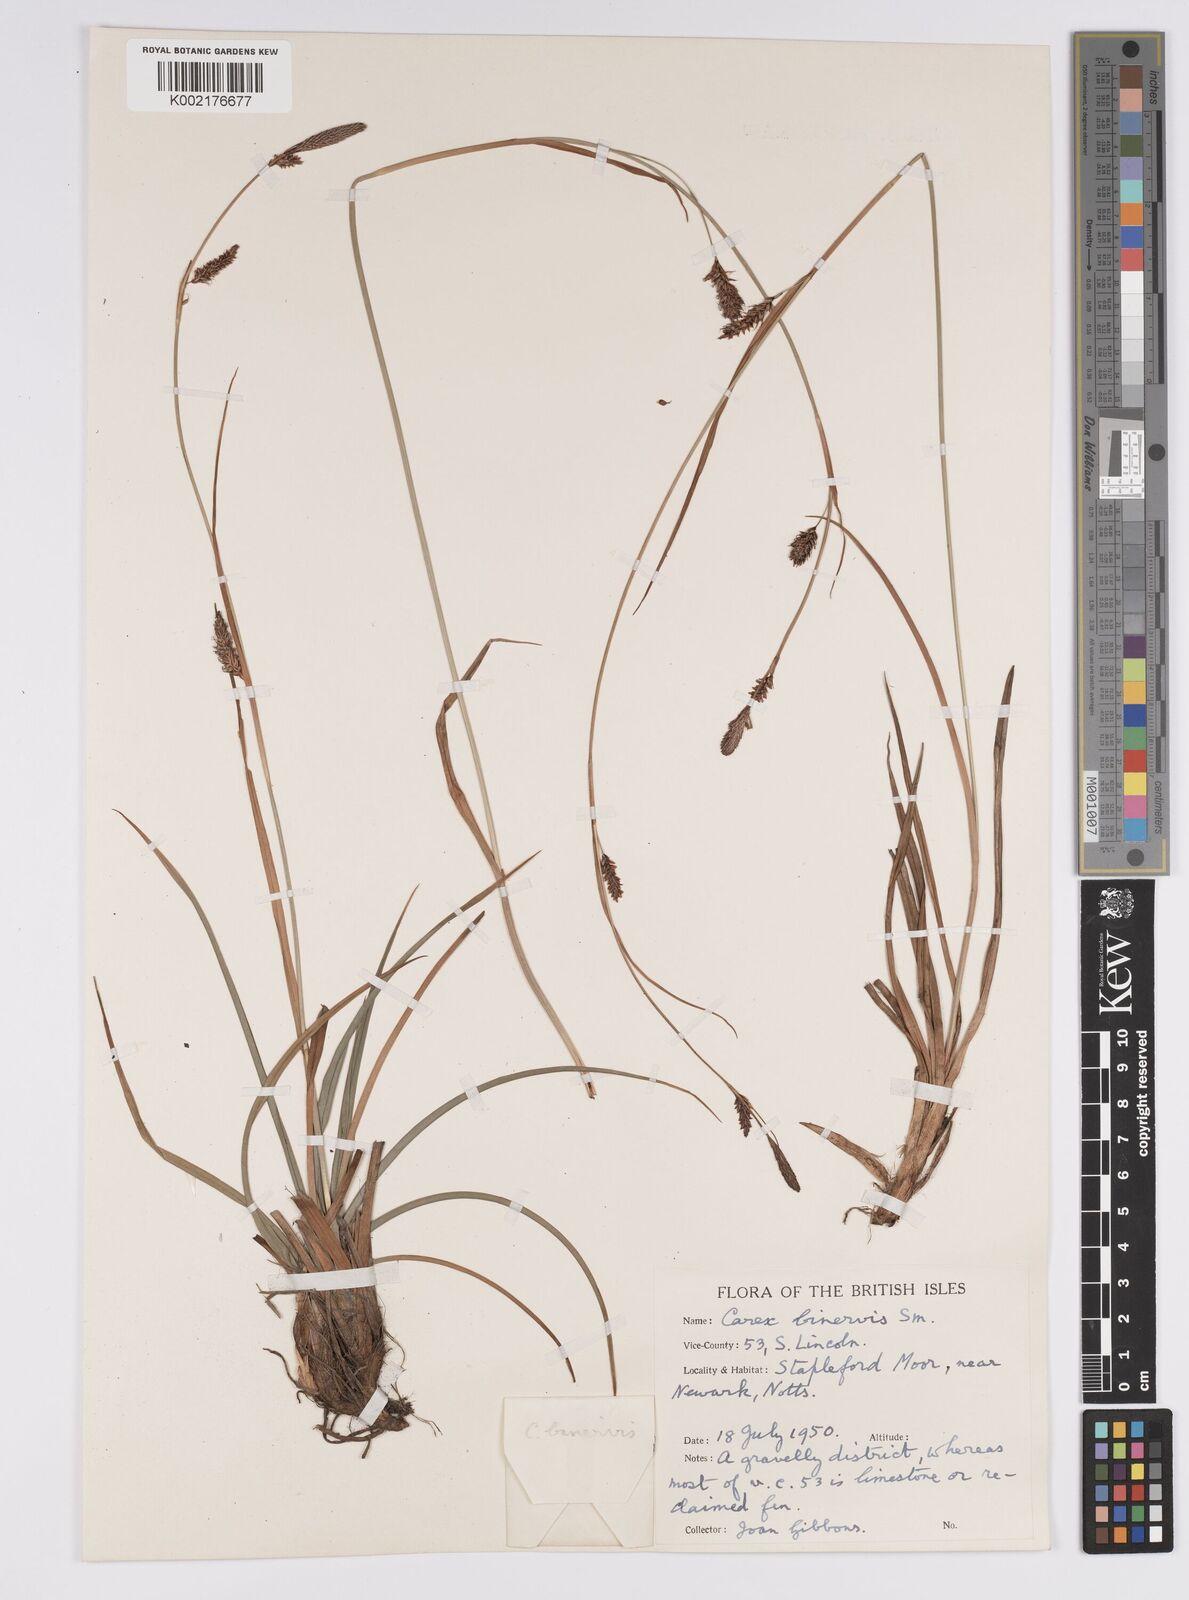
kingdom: Plantae
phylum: Tracheophyta
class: Liliopsida
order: Poales
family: Cyperaceae
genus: Carex
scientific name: Carex binervis
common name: Green-ribbed sedge
